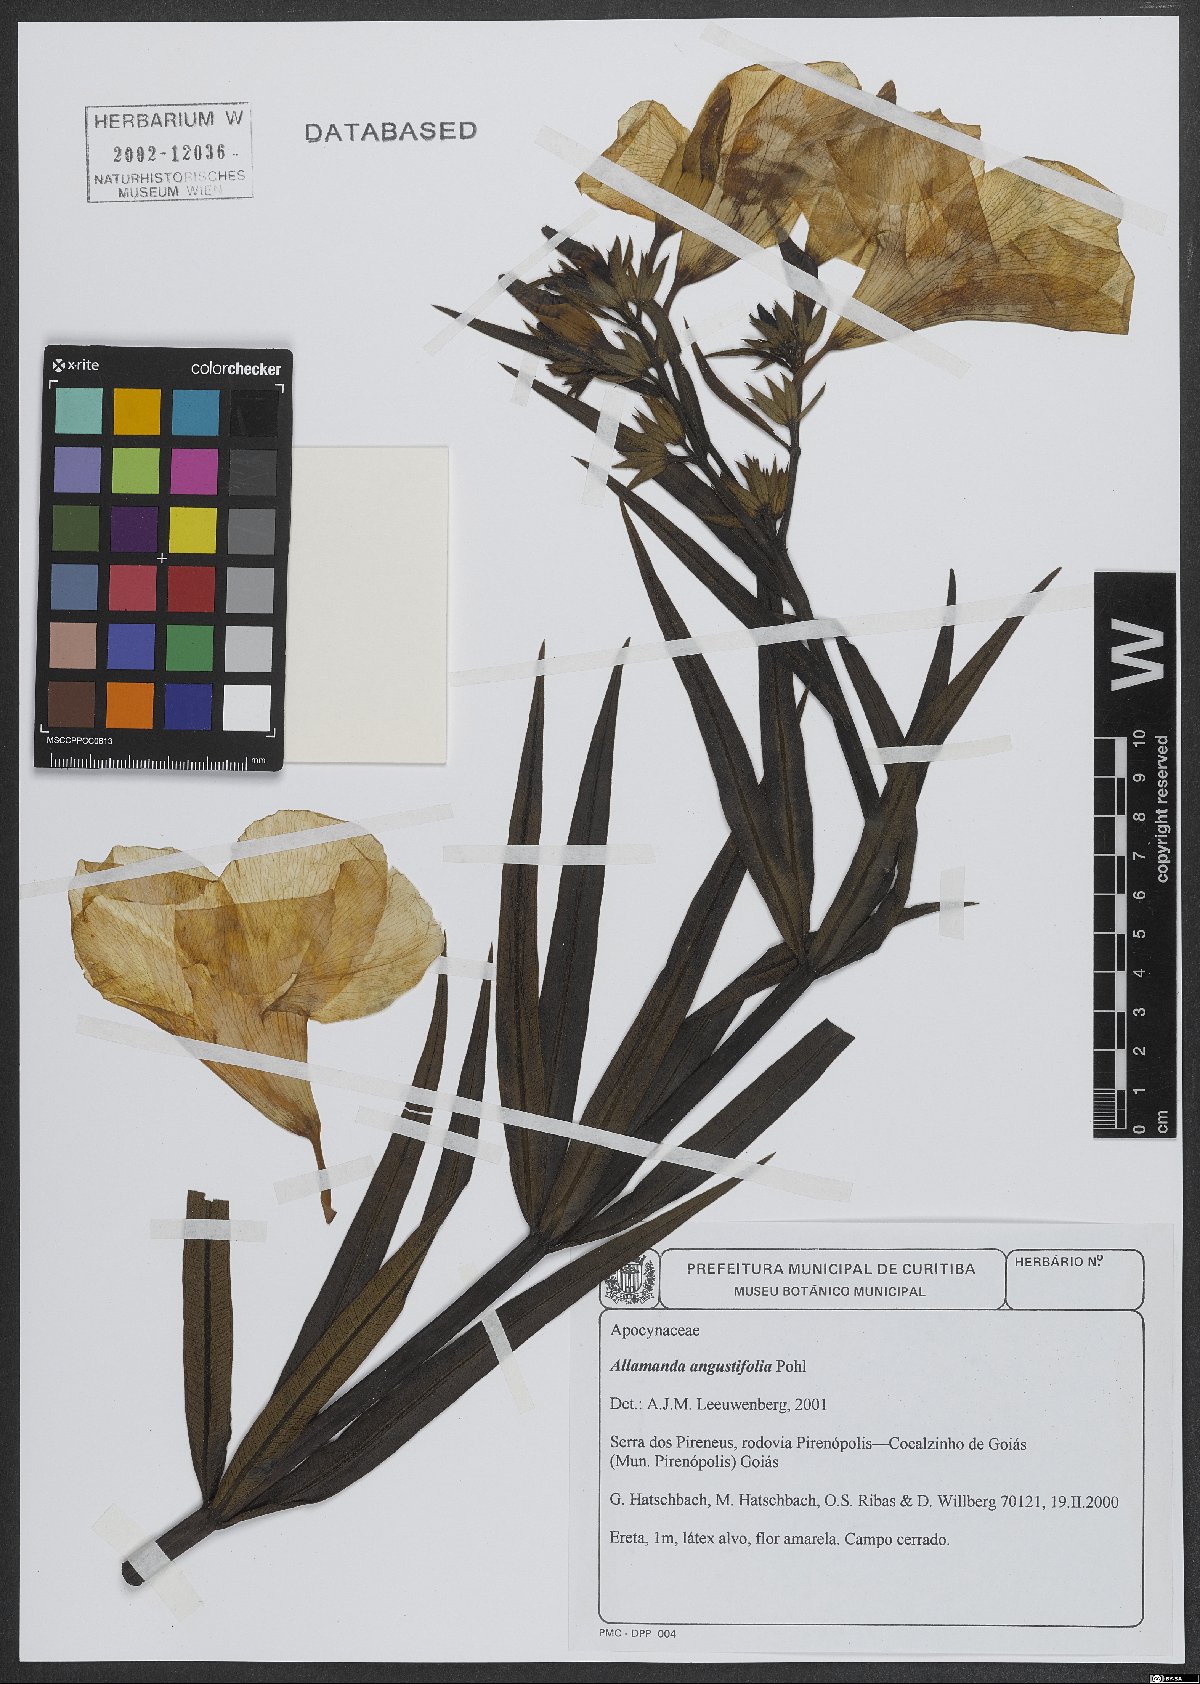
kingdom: Plantae
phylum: Tracheophyta
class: Magnoliopsida
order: Gentianales
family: Apocynaceae
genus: Allamanda
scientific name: Allamanda angustifolia
